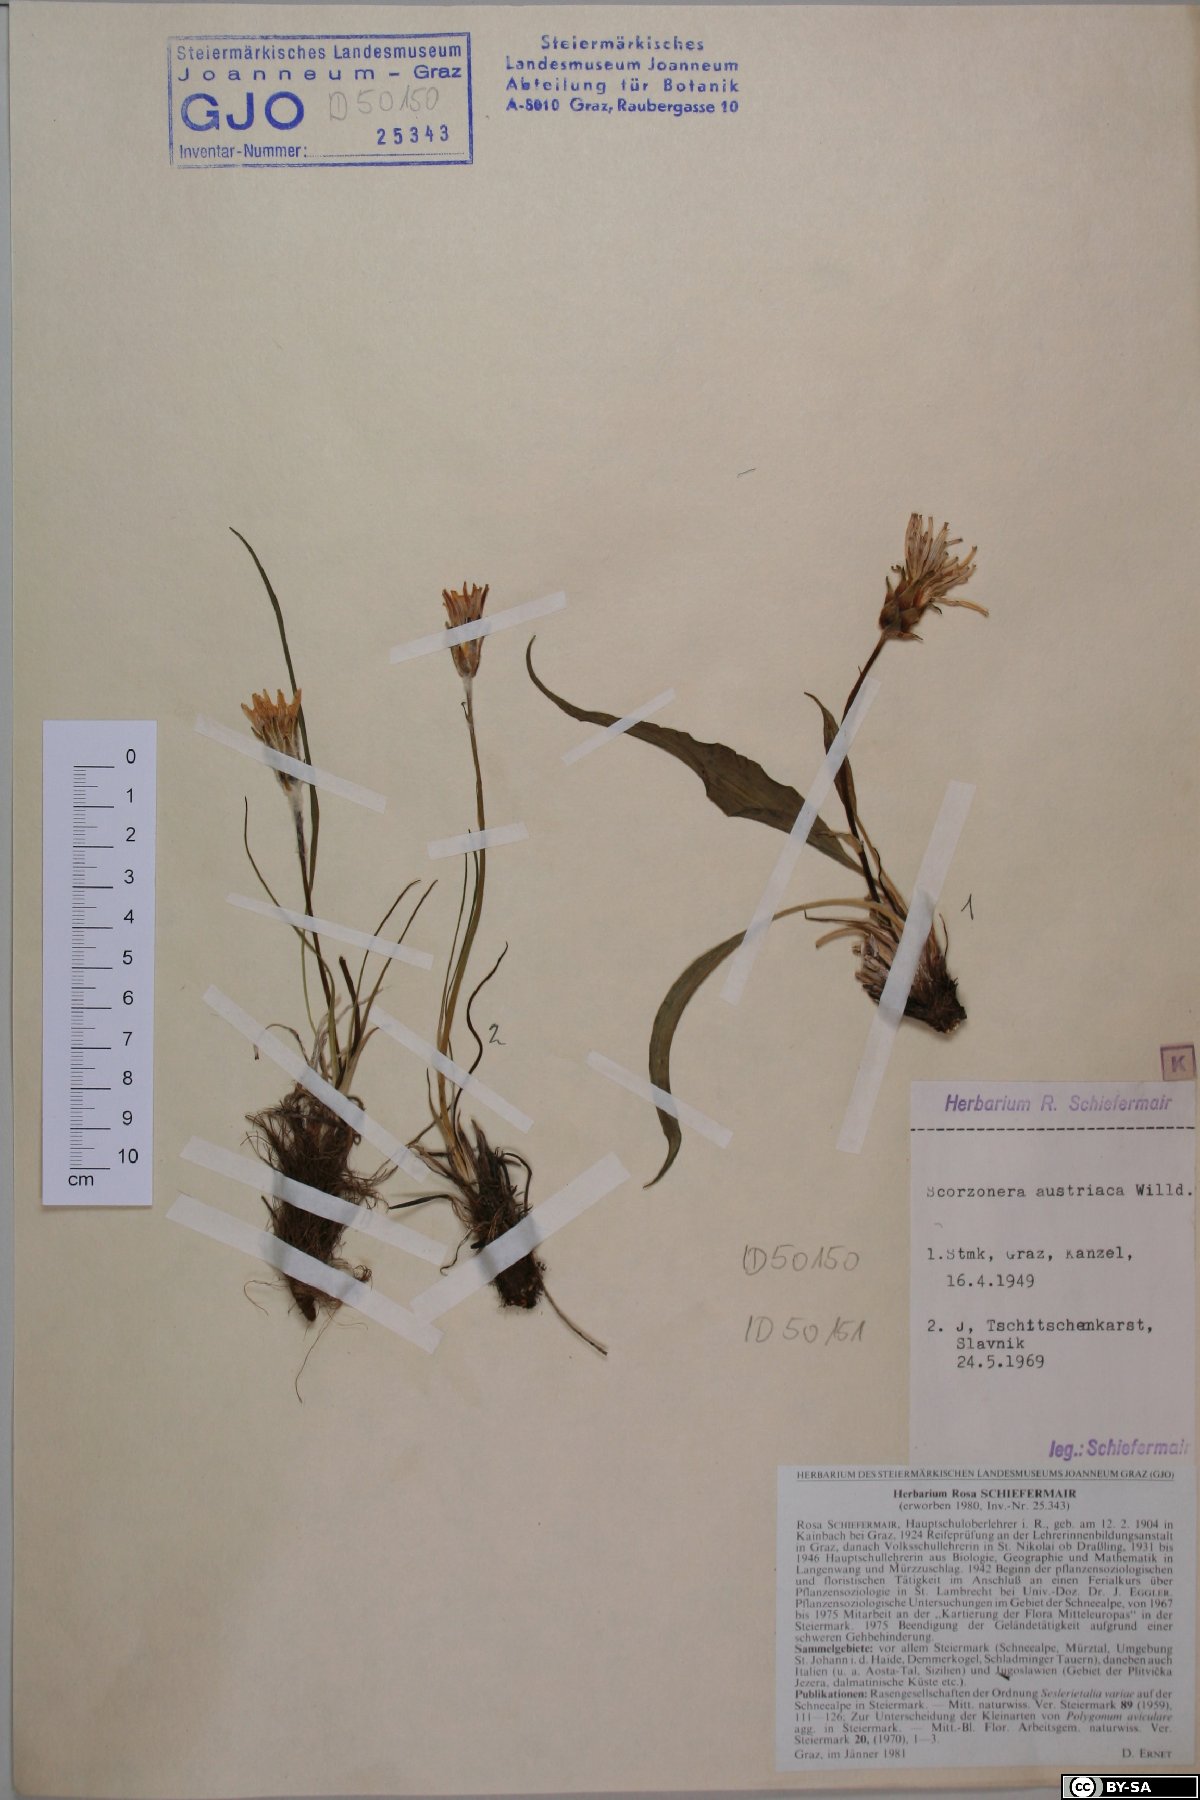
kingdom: Plantae
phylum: Tracheophyta
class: Magnoliopsida
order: Asterales
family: Asteraceae
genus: Takhtajaniantha
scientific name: Takhtajaniantha austriaca
